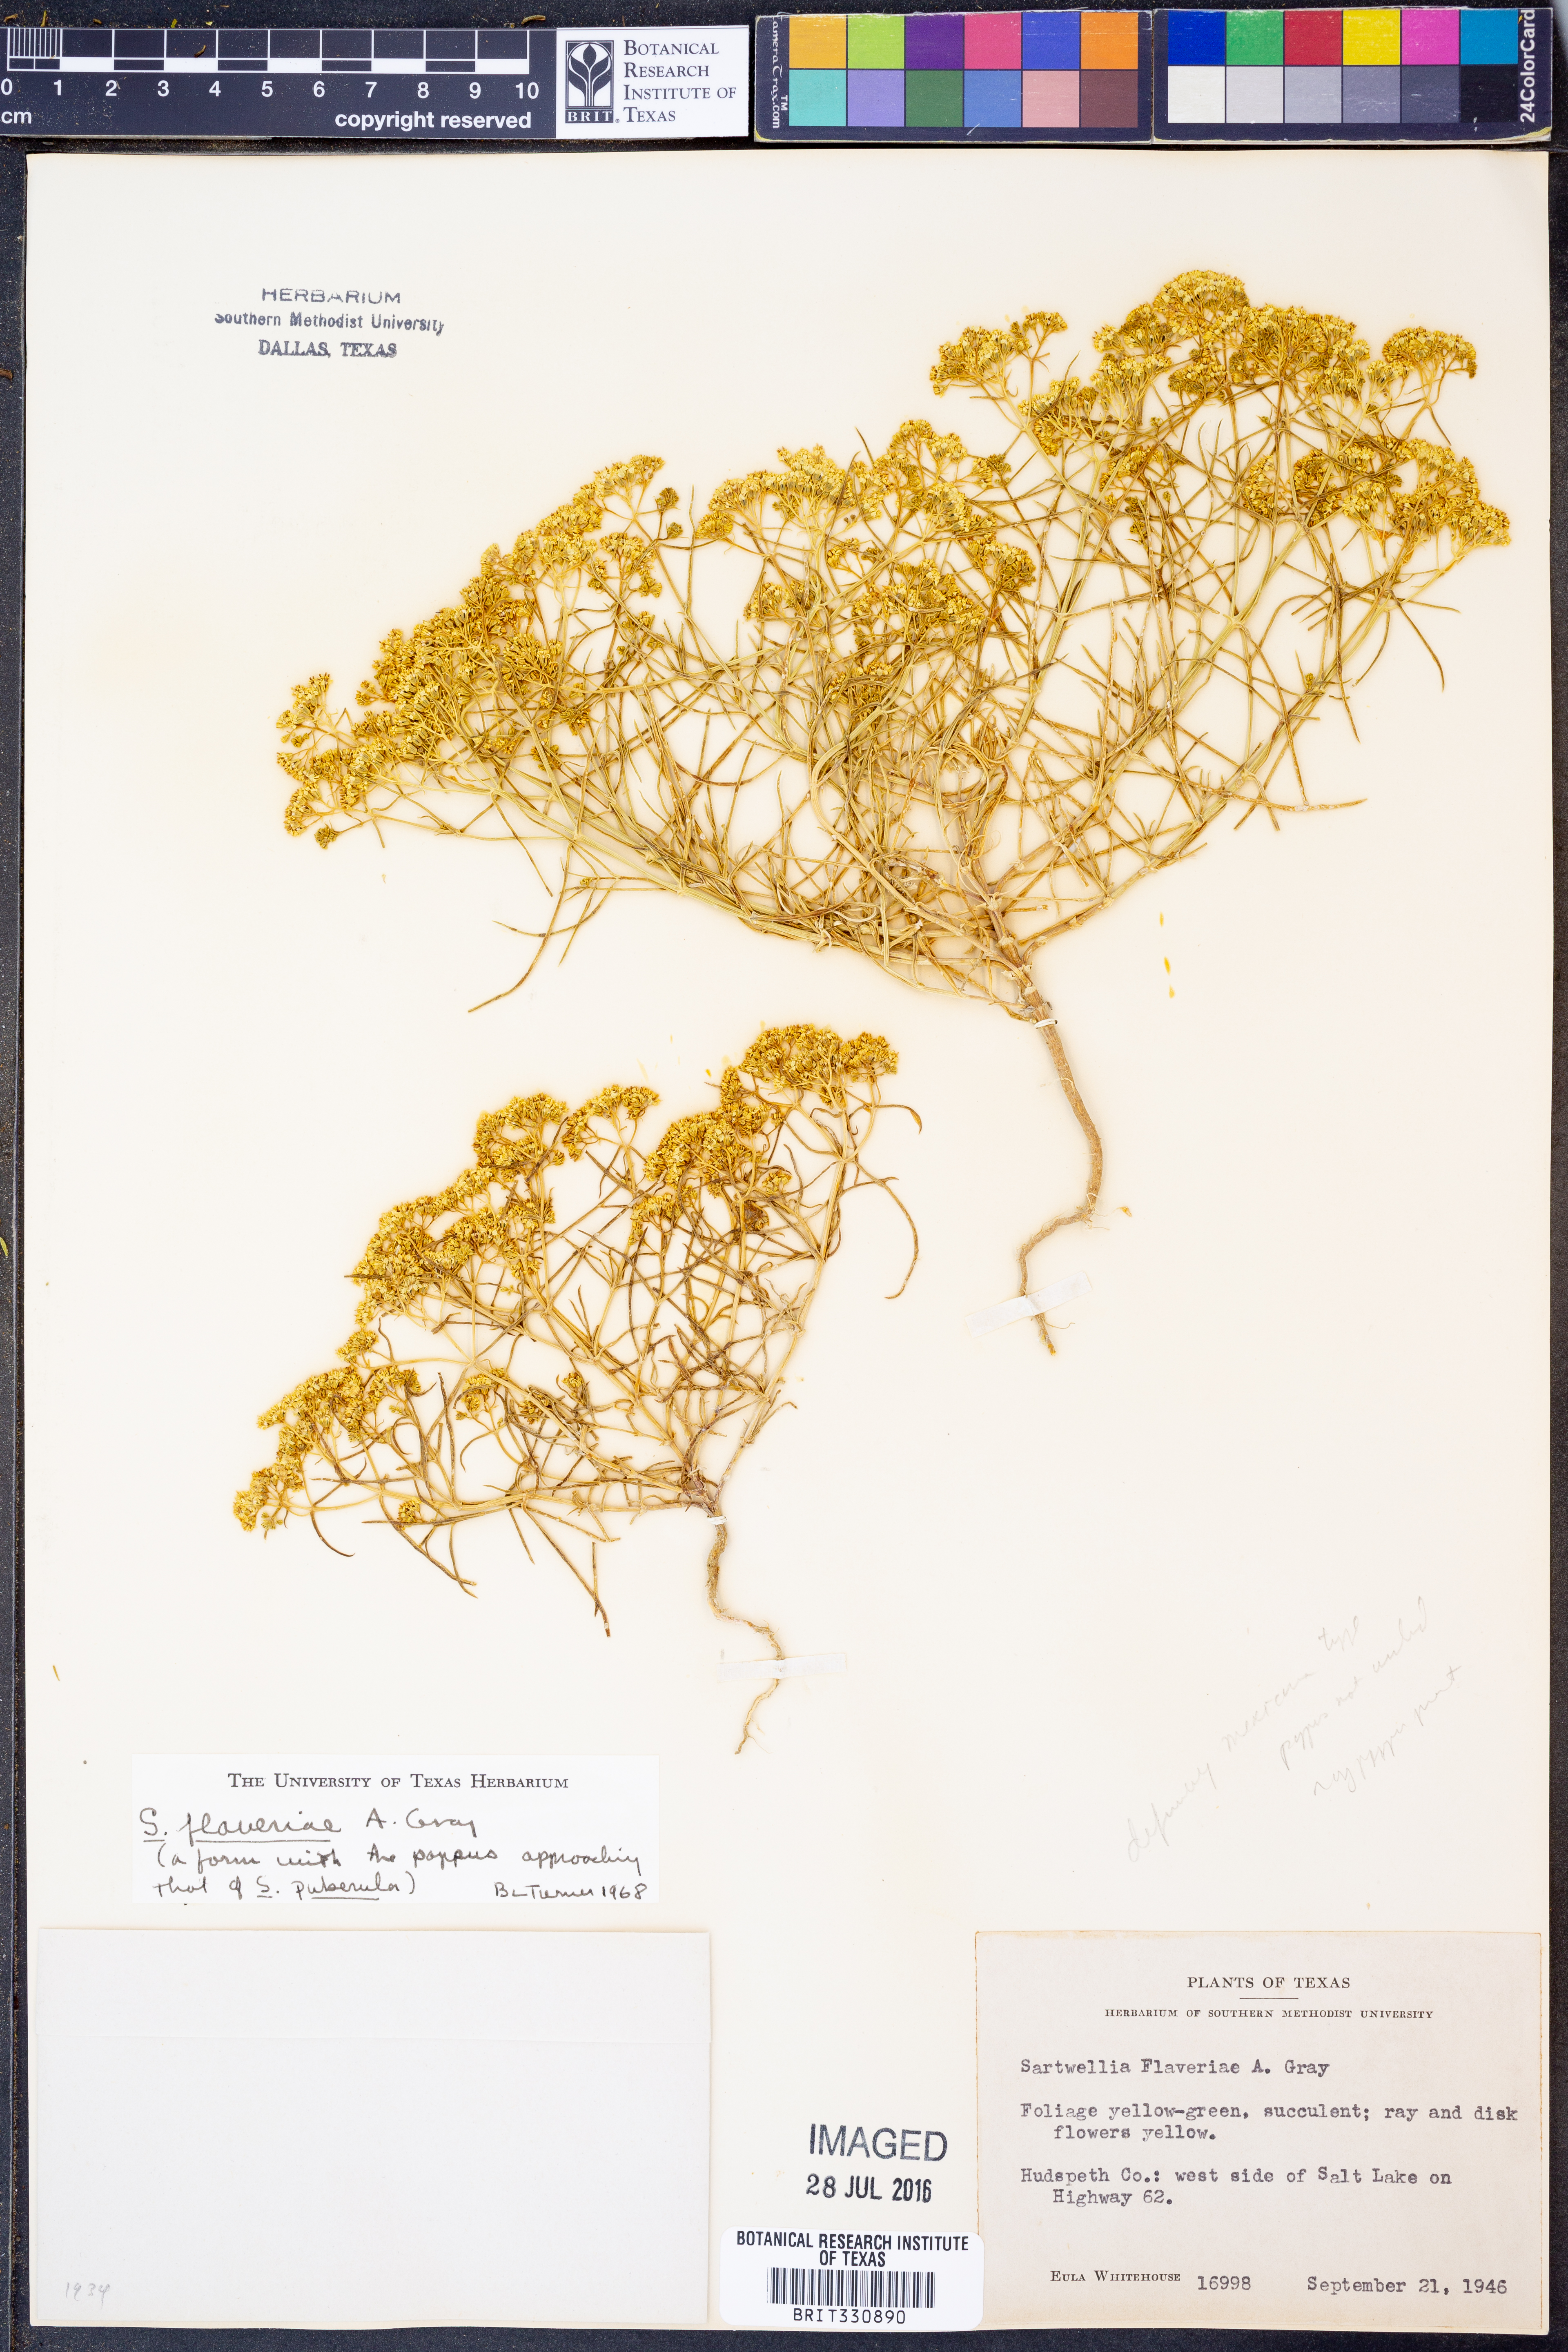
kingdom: Plantae
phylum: Tracheophyta
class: Magnoliopsida
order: Asterales
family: Asteraceae
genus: Sartwellia
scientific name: Sartwellia flaveriae
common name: Sartwellia
